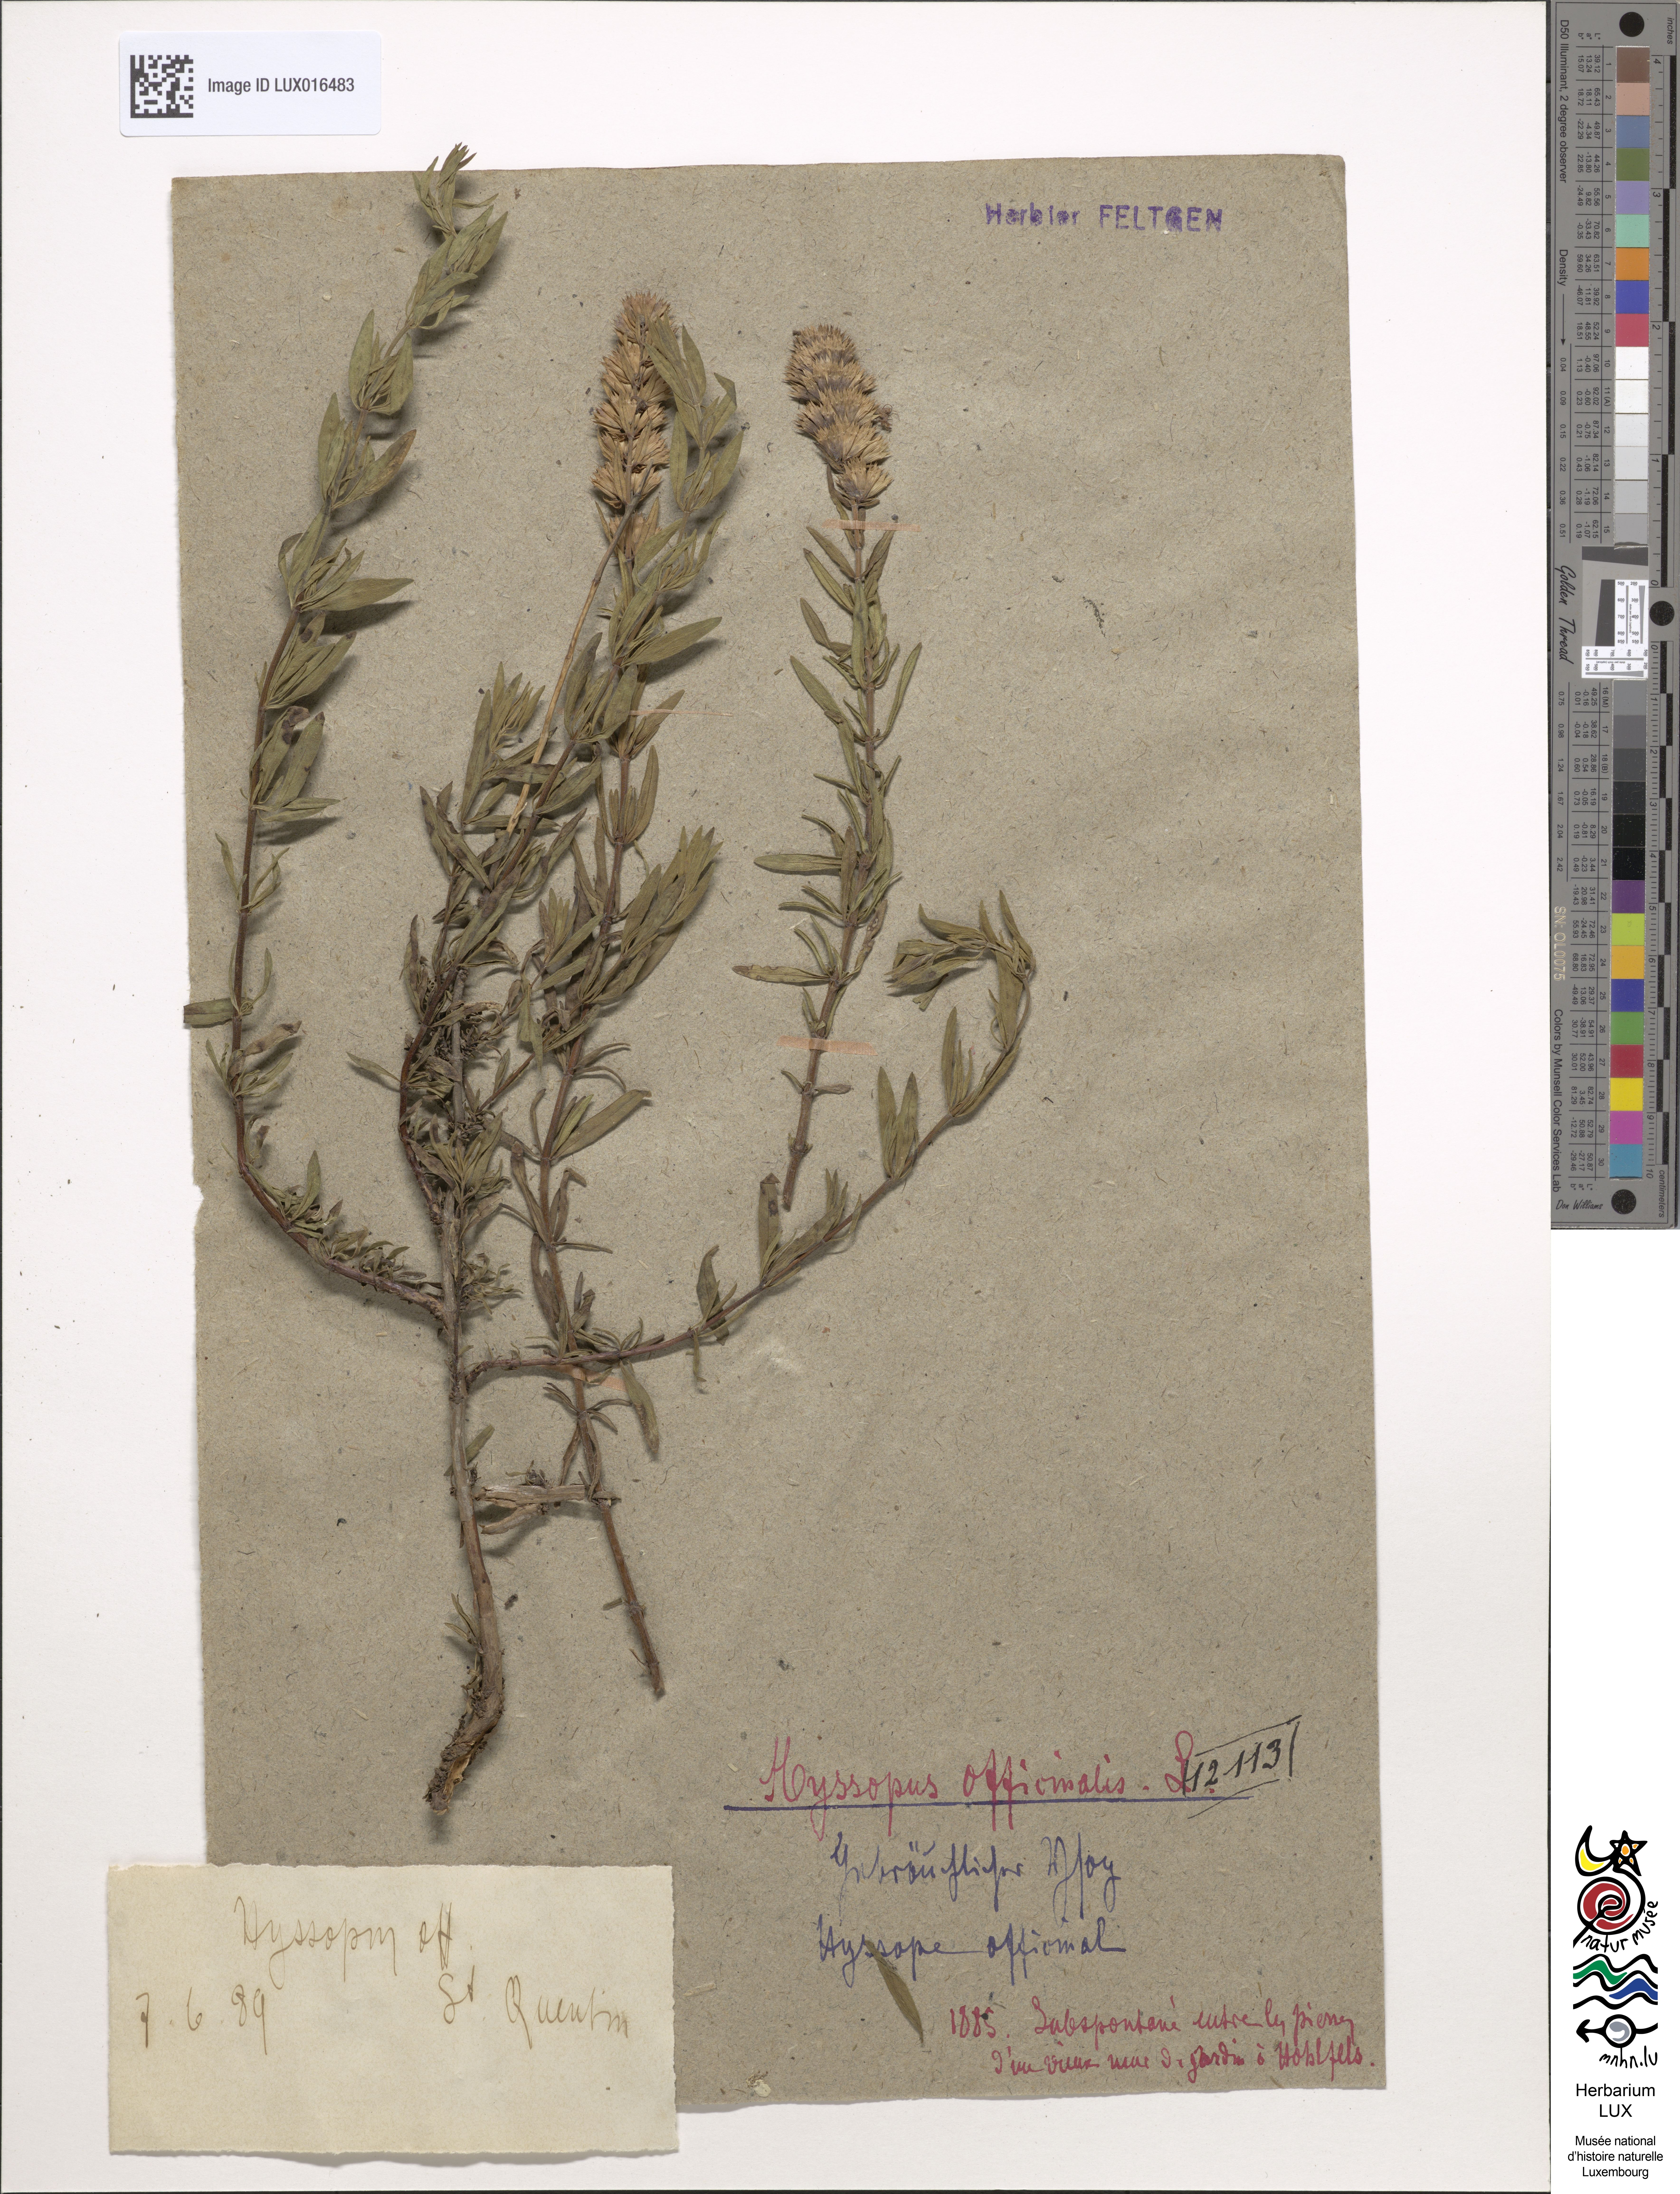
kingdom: Plantae
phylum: Tracheophyta
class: Magnoliopsida
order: Lamiales
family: Lamiaceae
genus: Hyssopus
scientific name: Hyssopus officinalis
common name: Hyssop
